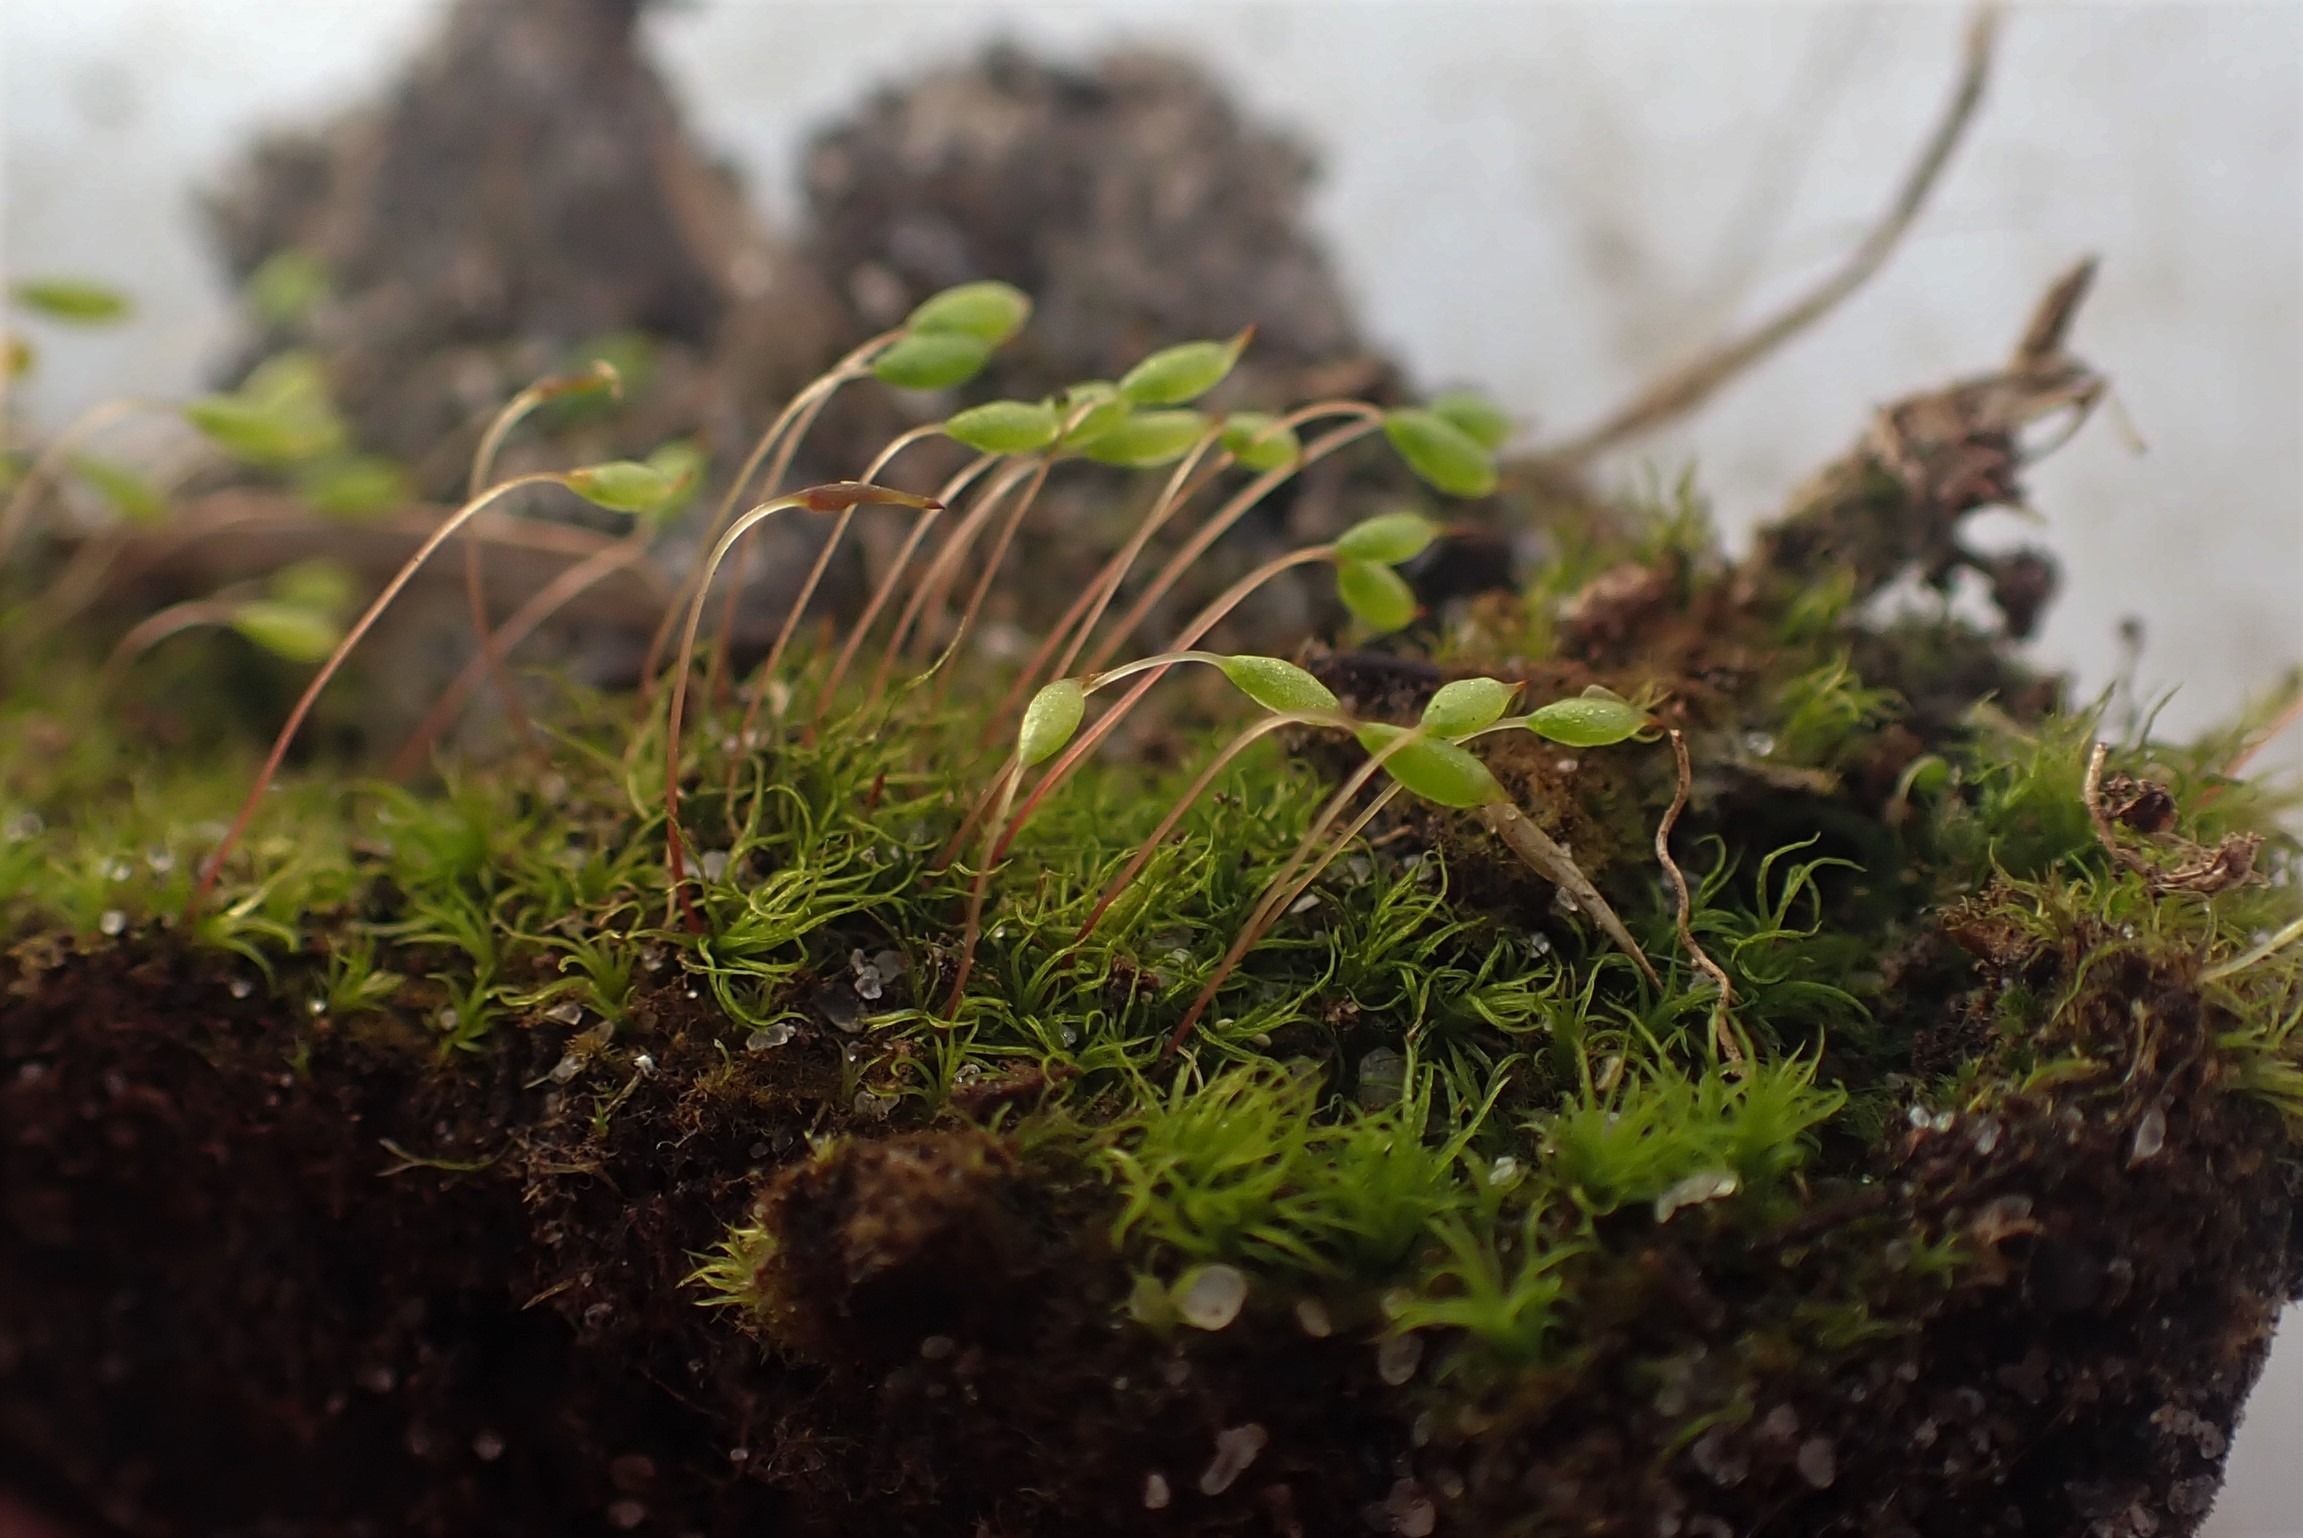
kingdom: Plantae
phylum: Bryophyta
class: Bryopsida
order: Orthodontiales
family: Orthodontiaceae
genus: Orthodontium
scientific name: Orthodontium lineare
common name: Smalbladet plysmos
